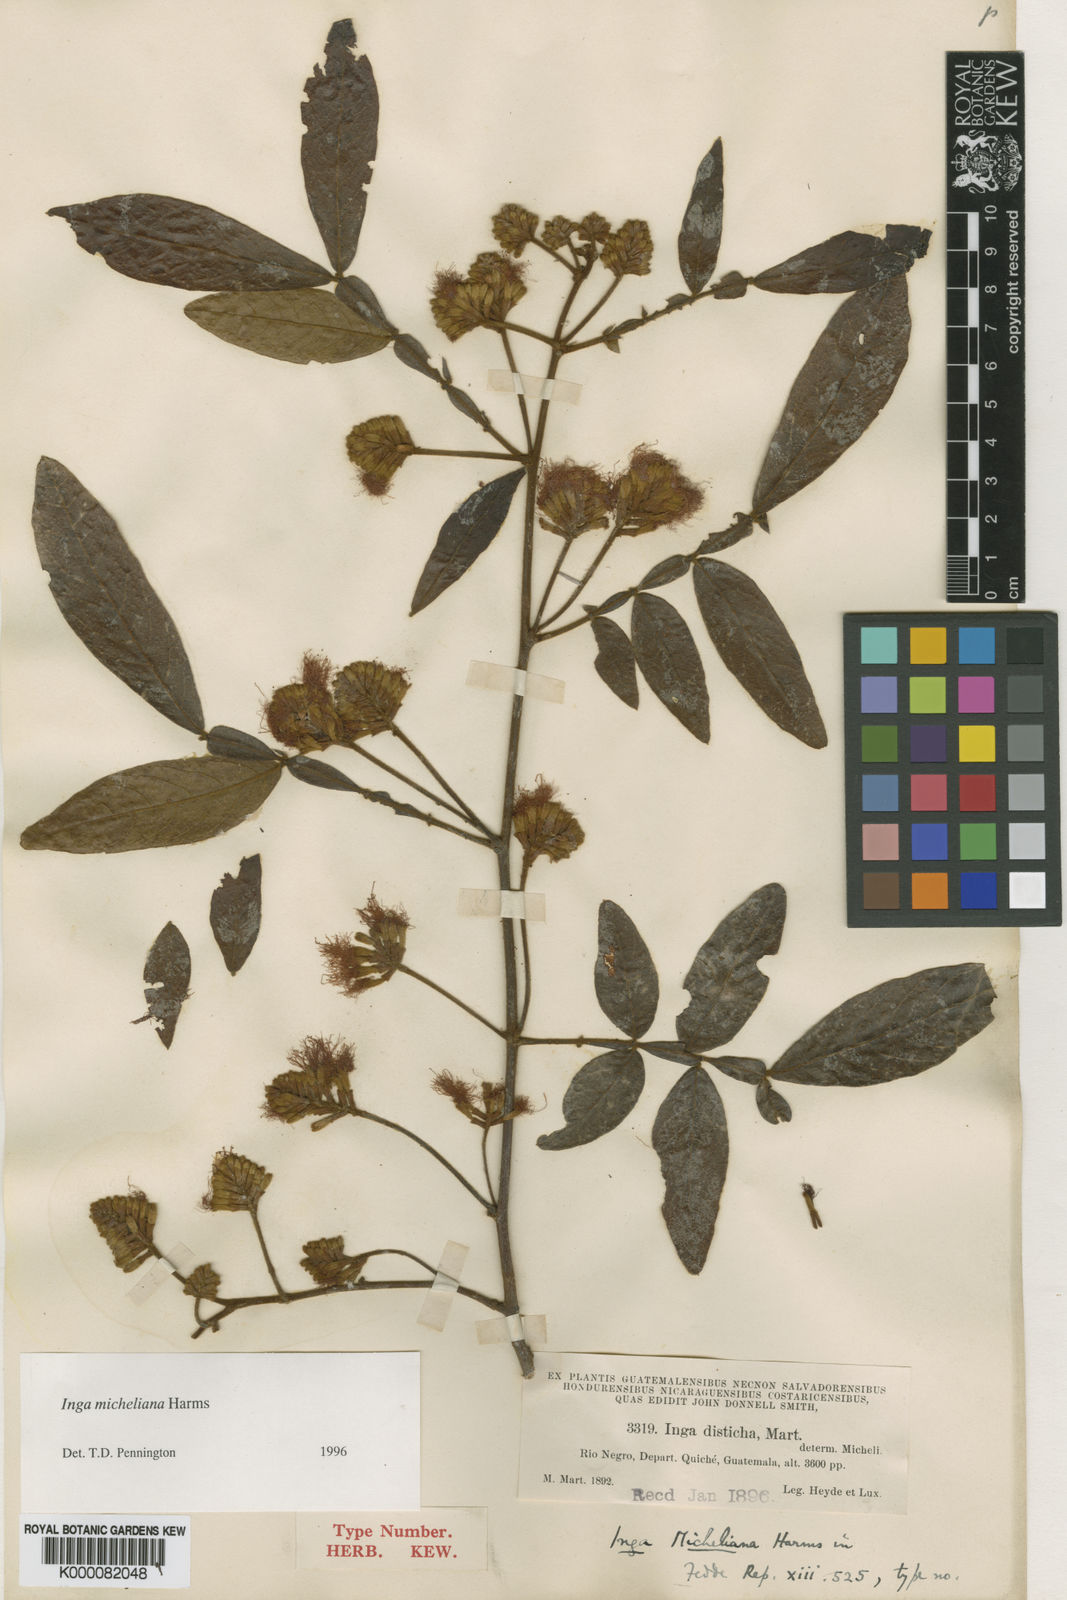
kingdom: Plantae
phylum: Tracheophyta
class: Magnoliopsida
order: Fabales
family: Fabaceae
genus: Inga
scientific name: Inga flexuosa
